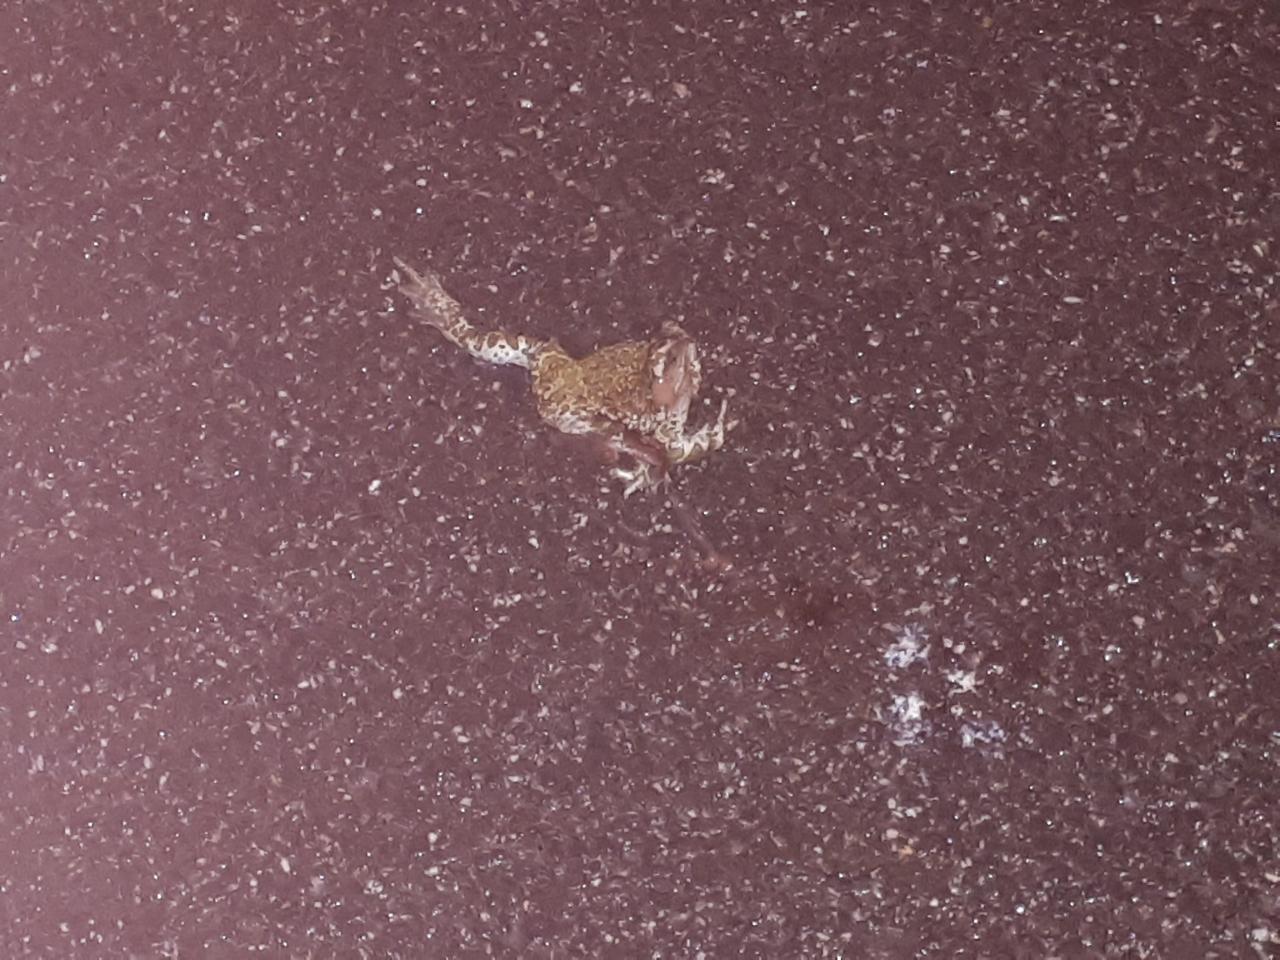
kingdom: Animalia
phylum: Chordata
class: Amphibia
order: Anura
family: Bufonidae
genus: Bufotes
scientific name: Bufotes viridis
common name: European green toad
